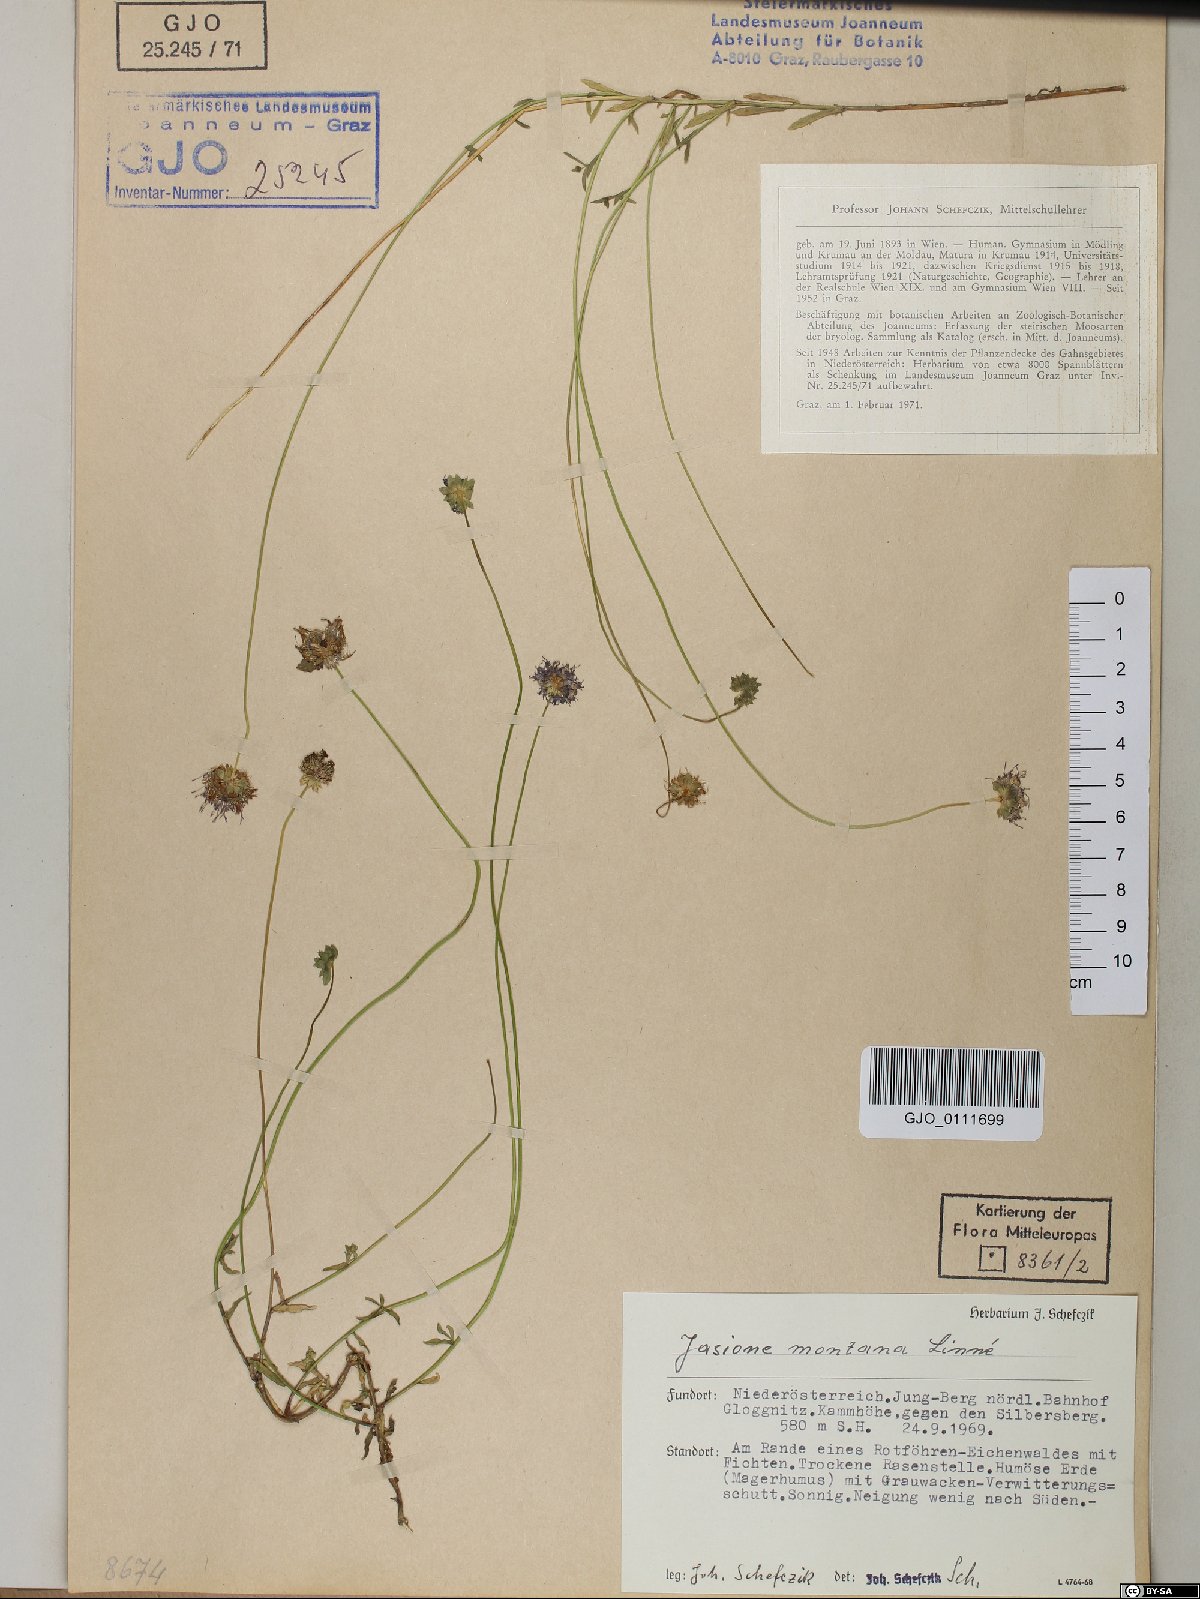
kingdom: Plantae
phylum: Tracheophyta
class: Magnoliopsida
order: Asterales
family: Campanulaceae
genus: Jasione
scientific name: Jasione montana
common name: Sheep's-bit
